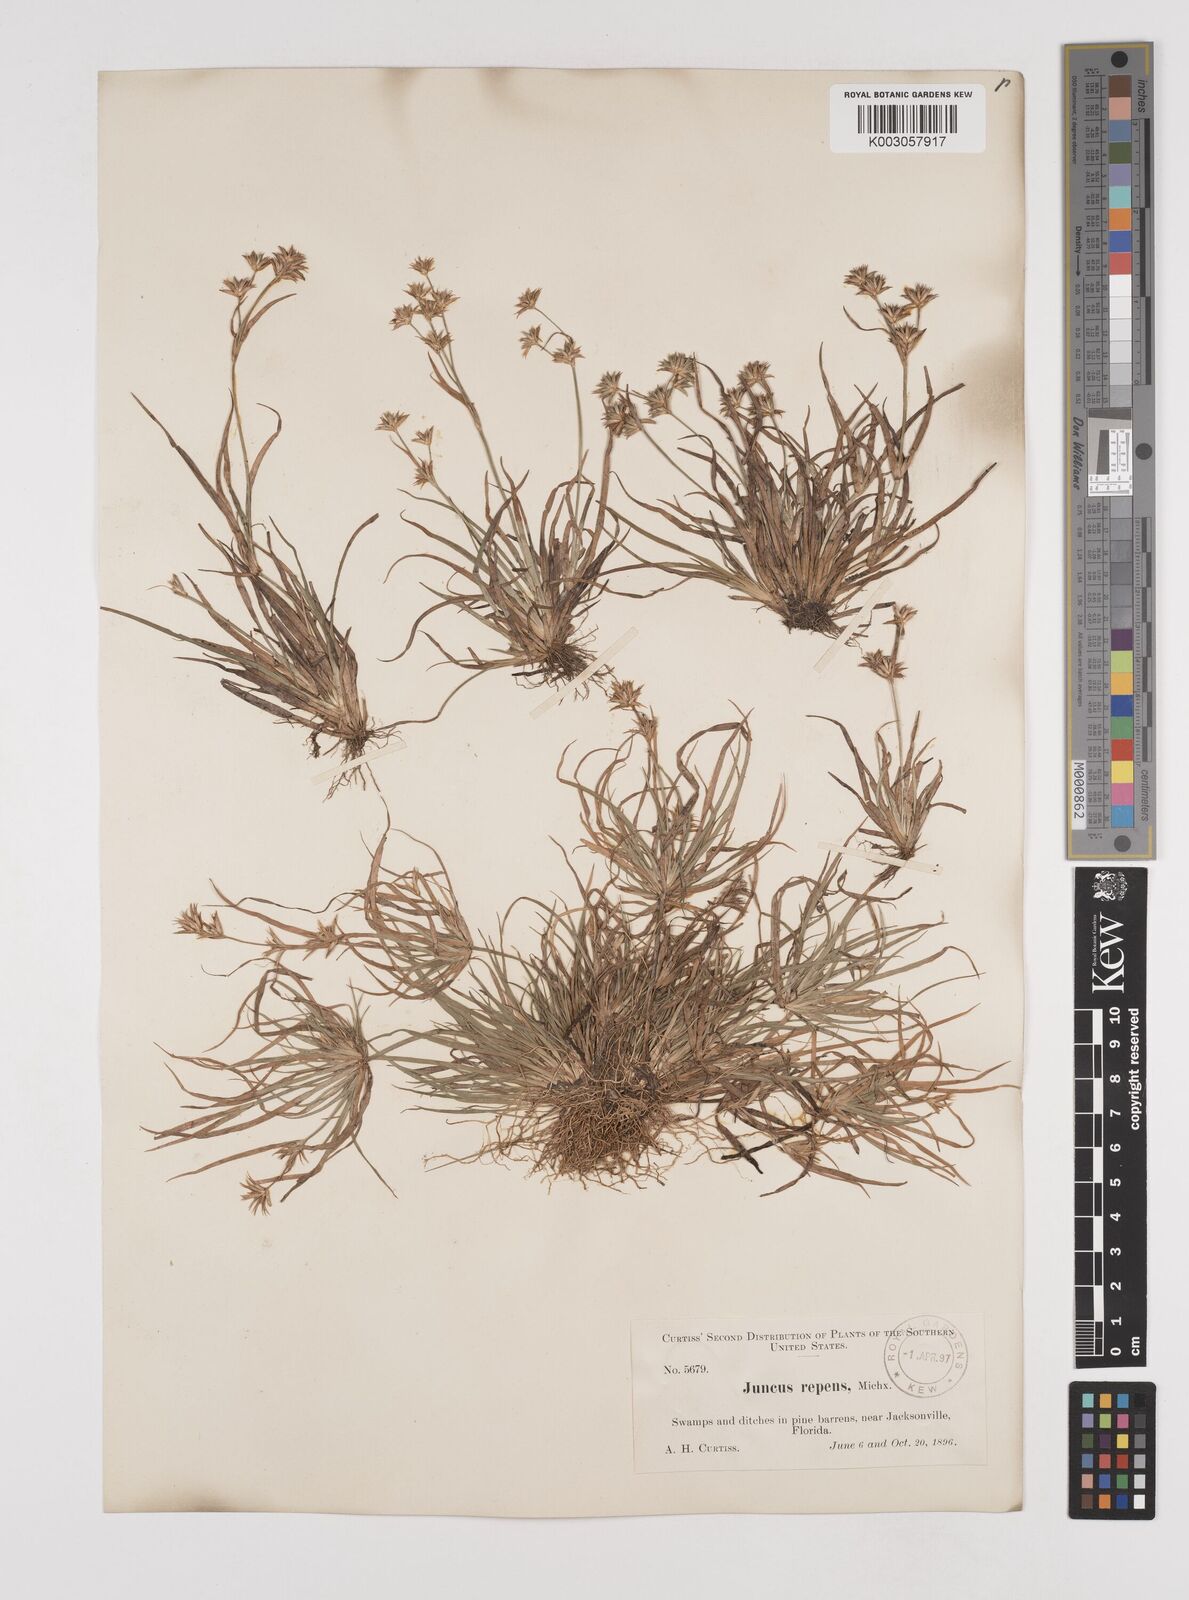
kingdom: Plantae
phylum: Tracheophyta
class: Liliopsida
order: Poales
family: Juncaceae
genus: Juncus
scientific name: Juncus repens
